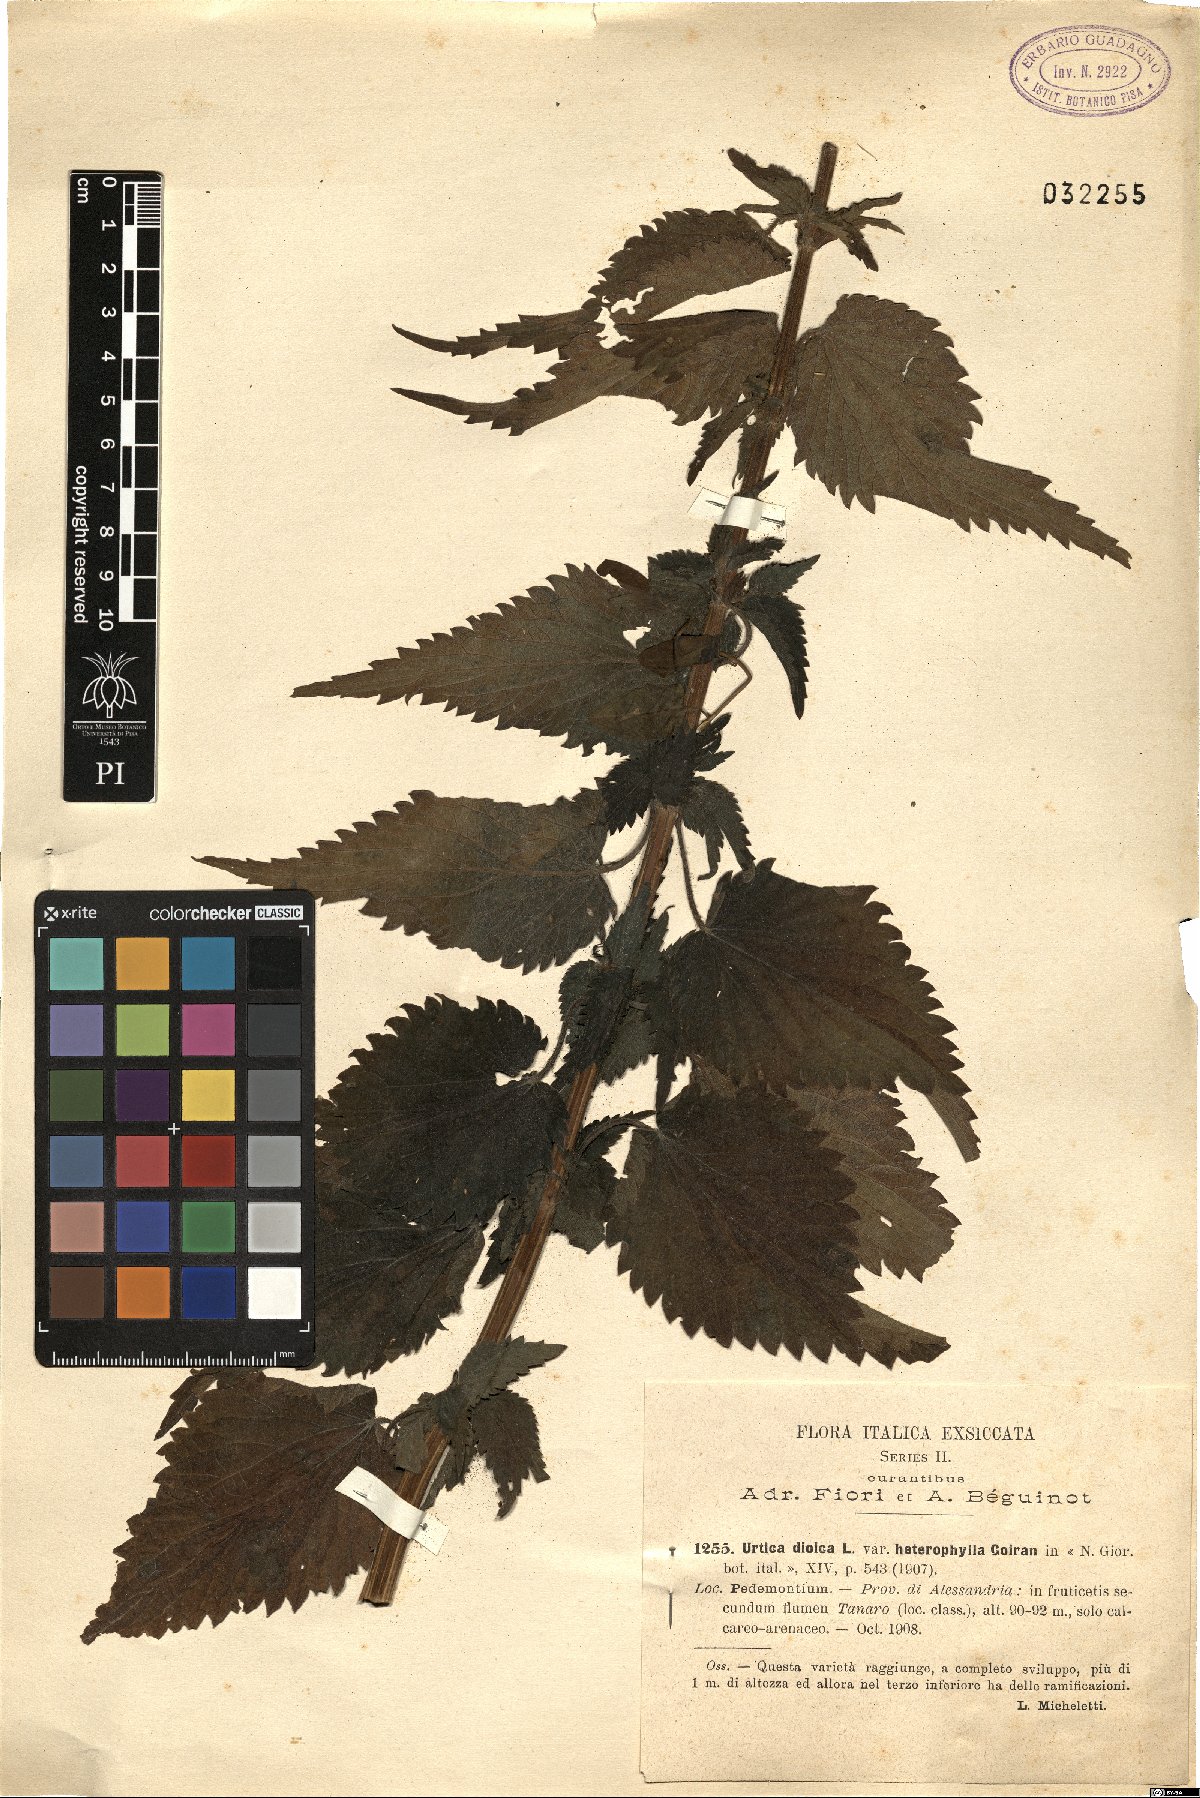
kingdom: Plantae
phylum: Tracheophyta
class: Magnoliopsida
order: Rosales
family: Urticaceae
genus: Urtica
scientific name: Urtica dioica
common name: Common nettle
